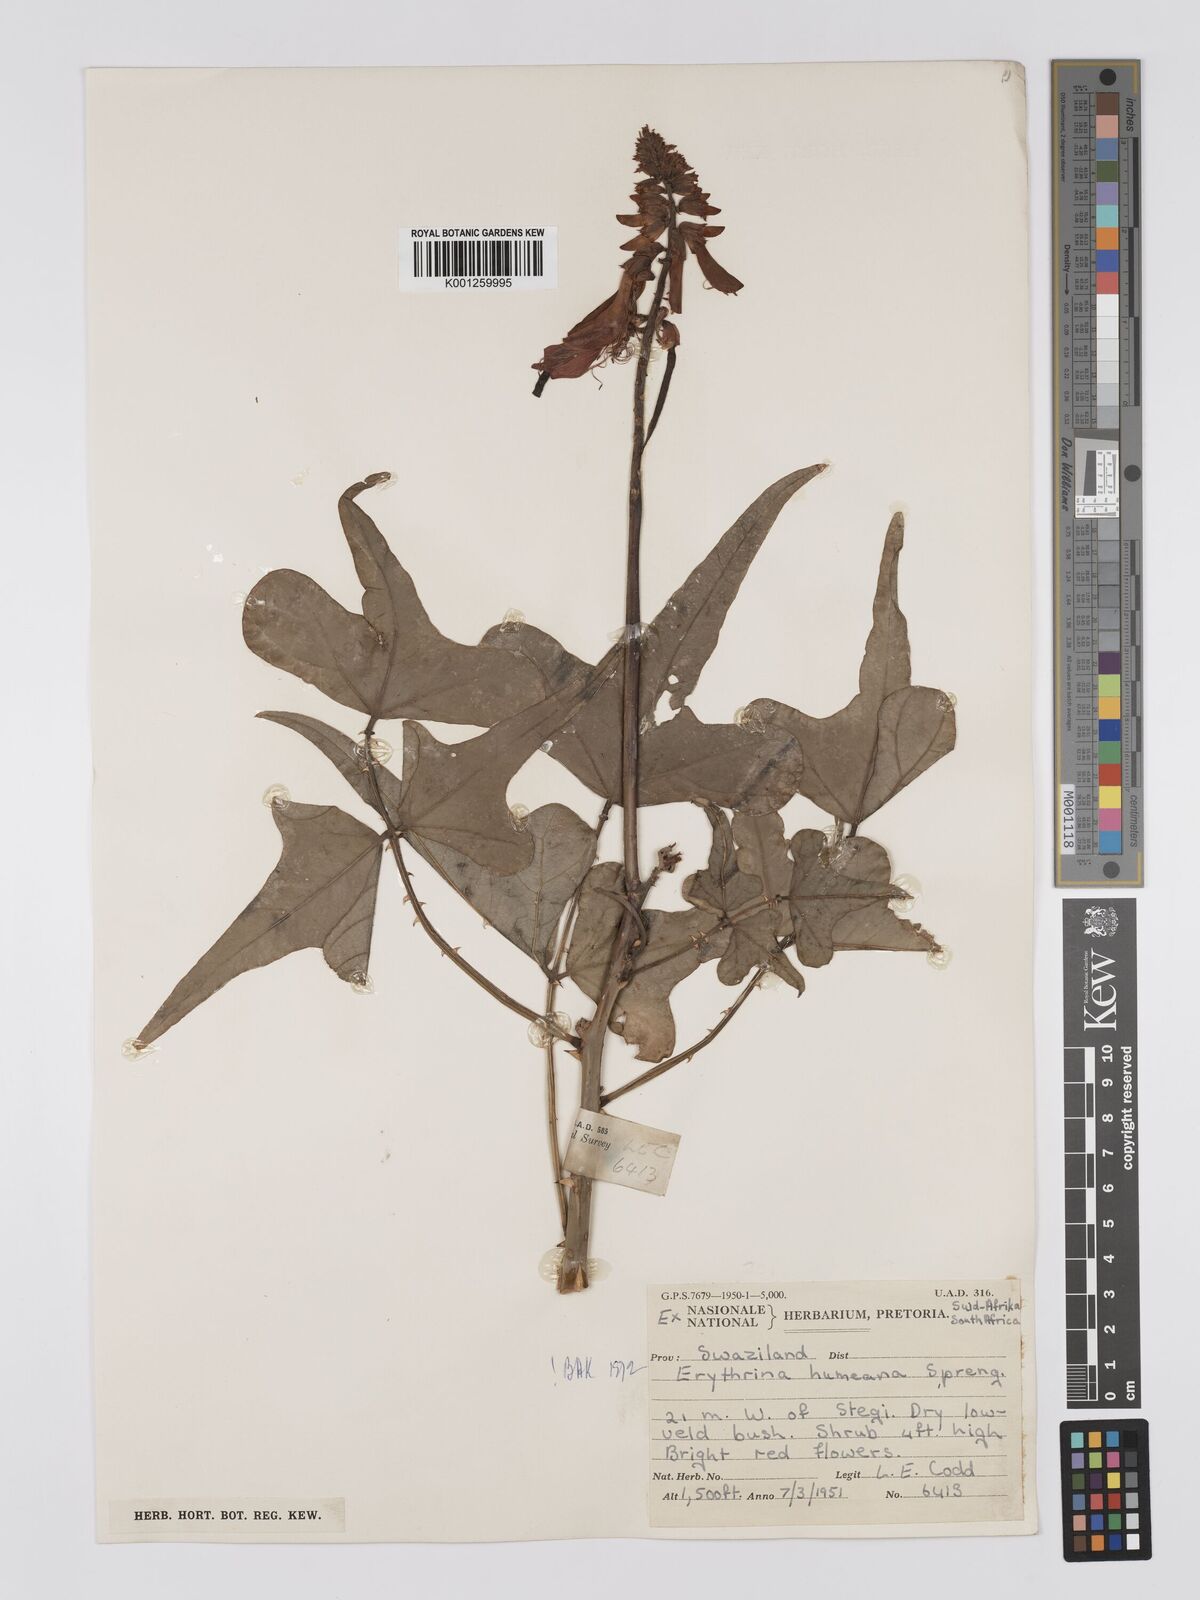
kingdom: Plantae
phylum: Tracheophyta
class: Magnoliopsida
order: Fabales
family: Fabaceae
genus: Erythrina
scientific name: Erythrina humeana
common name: Dwarf coral tree
